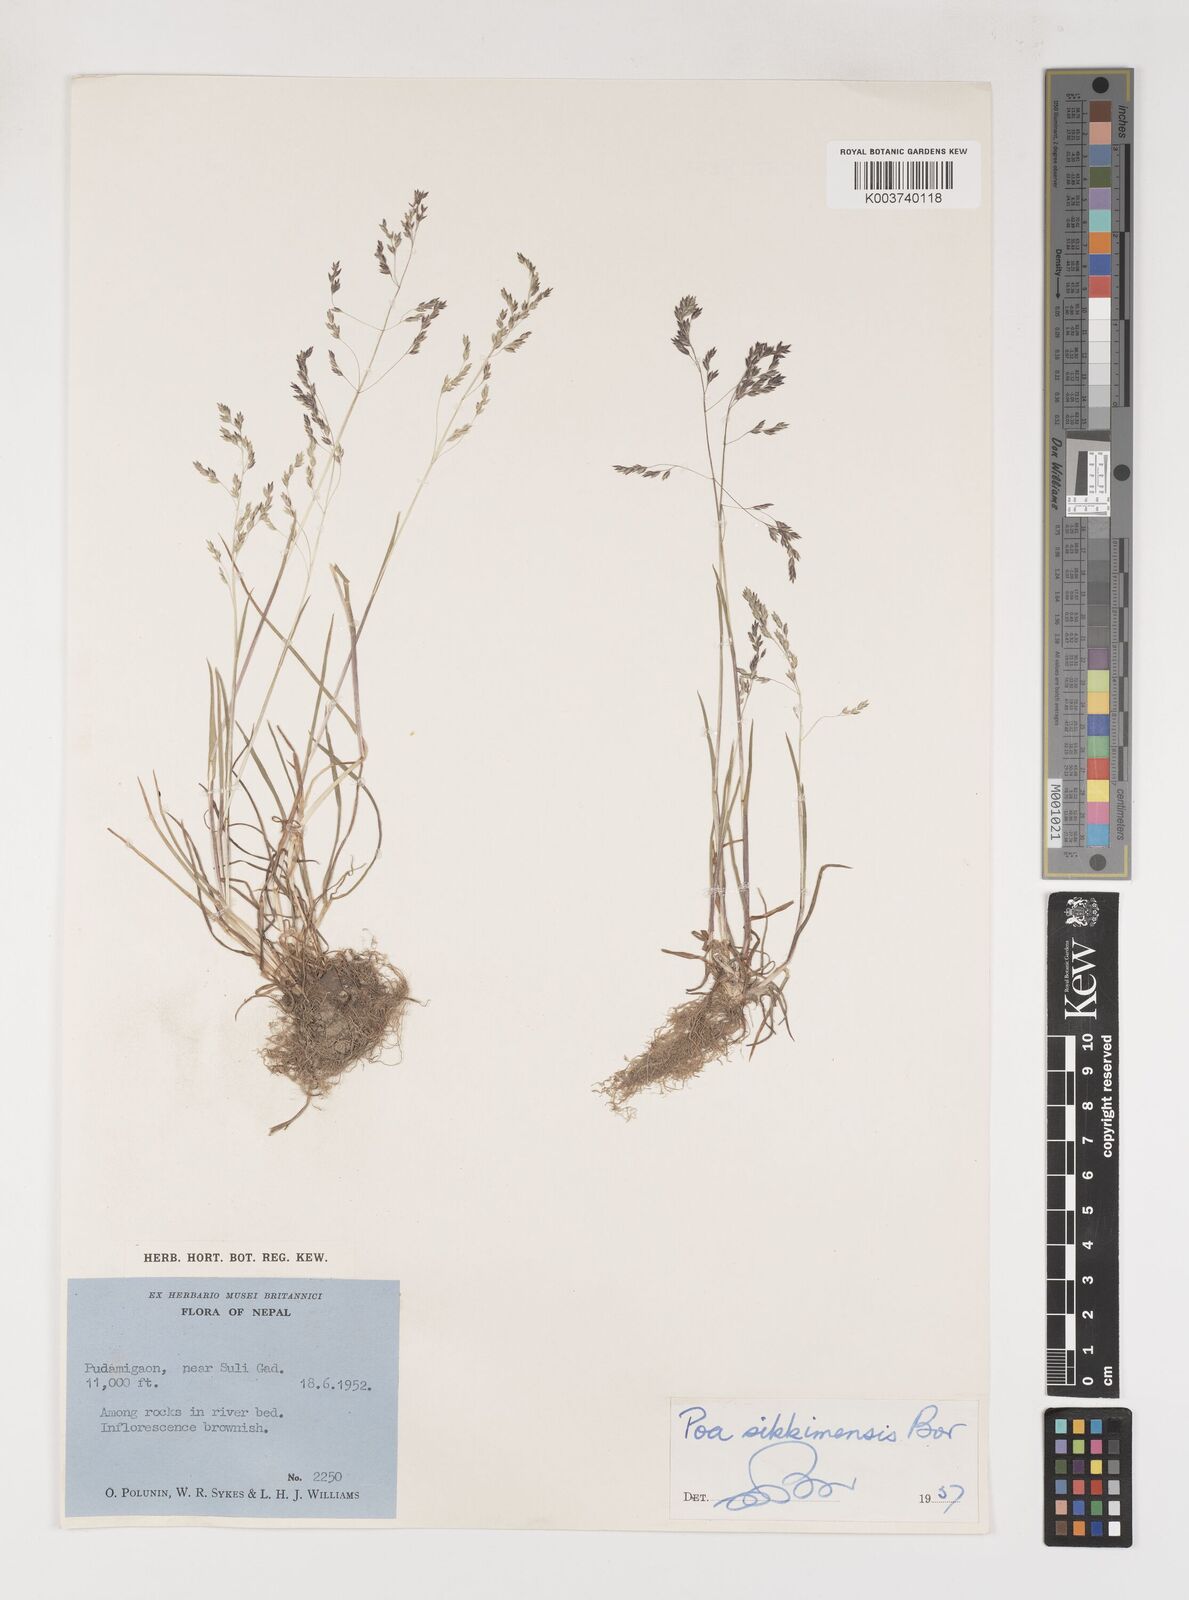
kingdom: Plantae
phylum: Tracheophyta
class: Liliopsida
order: Poales
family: Poaceae
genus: Poa
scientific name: Poa sikkimensis
